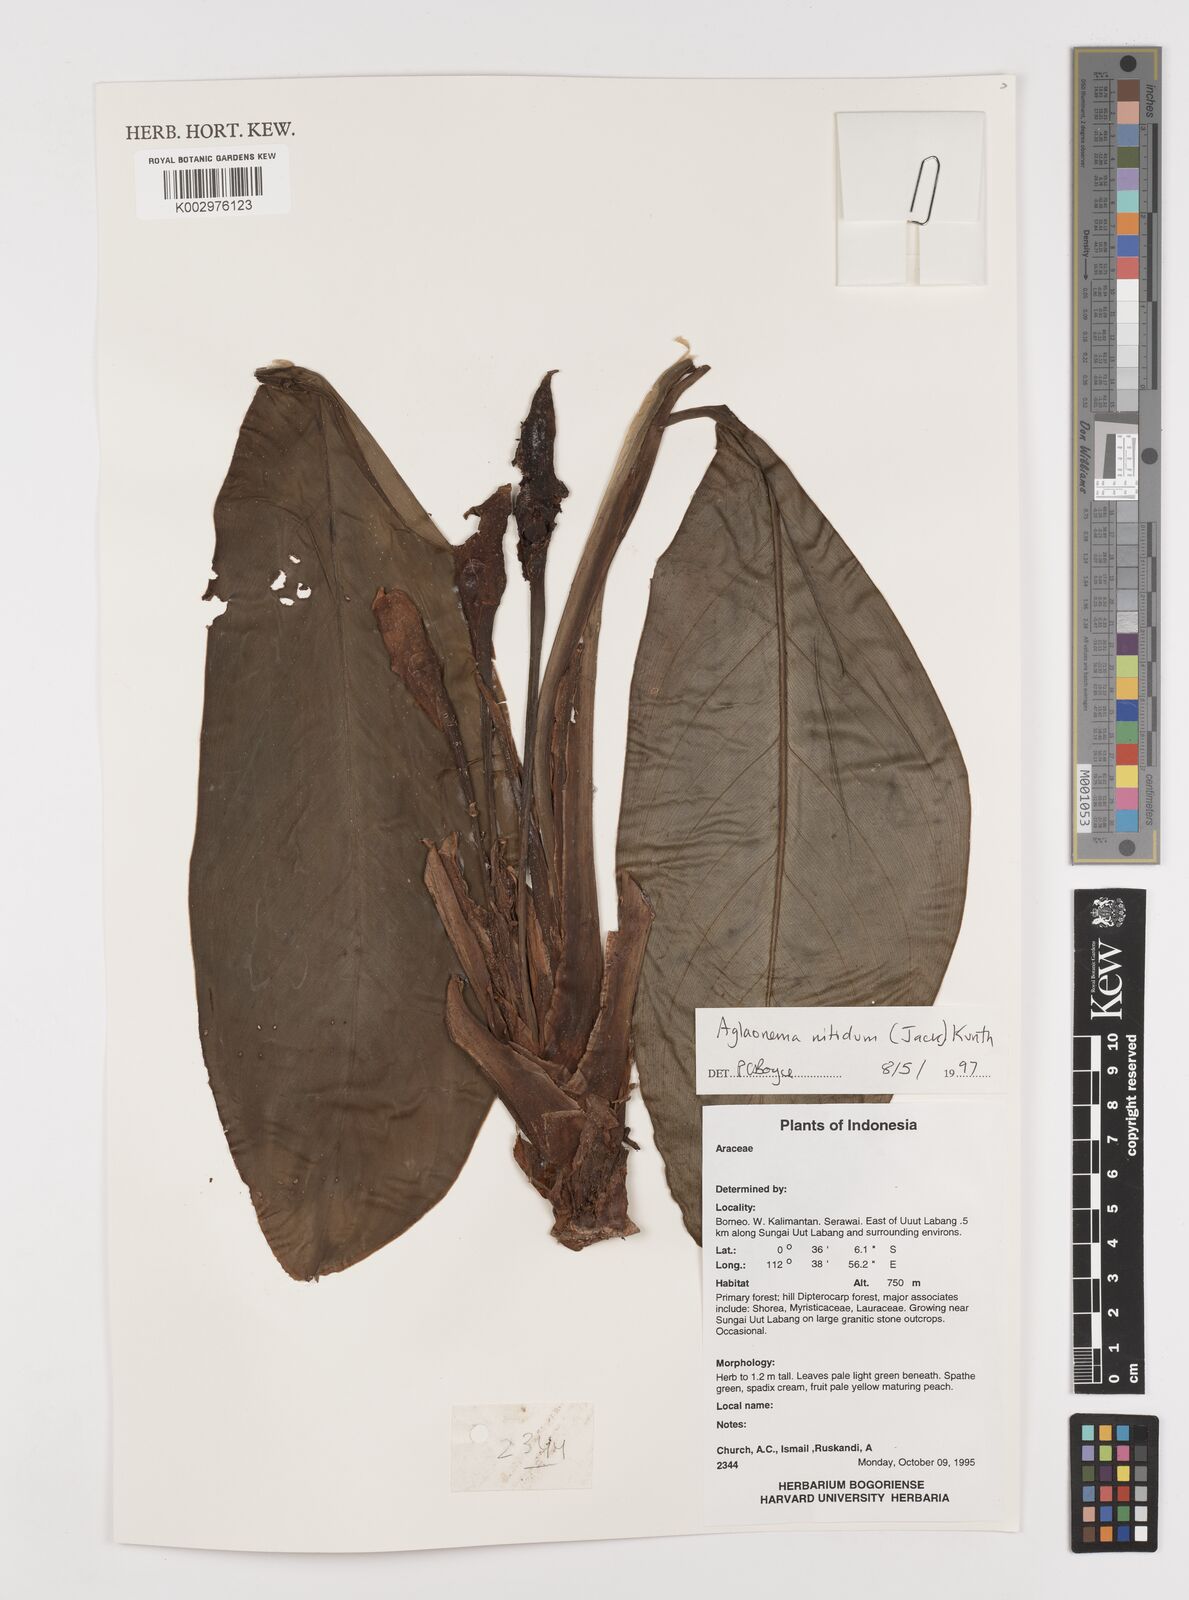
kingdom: Plantae
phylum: Tracheophyta
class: Liliopsida
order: Alismatales
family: Araceae
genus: Aglaonema
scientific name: Aglaonema nitidum
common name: Aglaonema aroid
